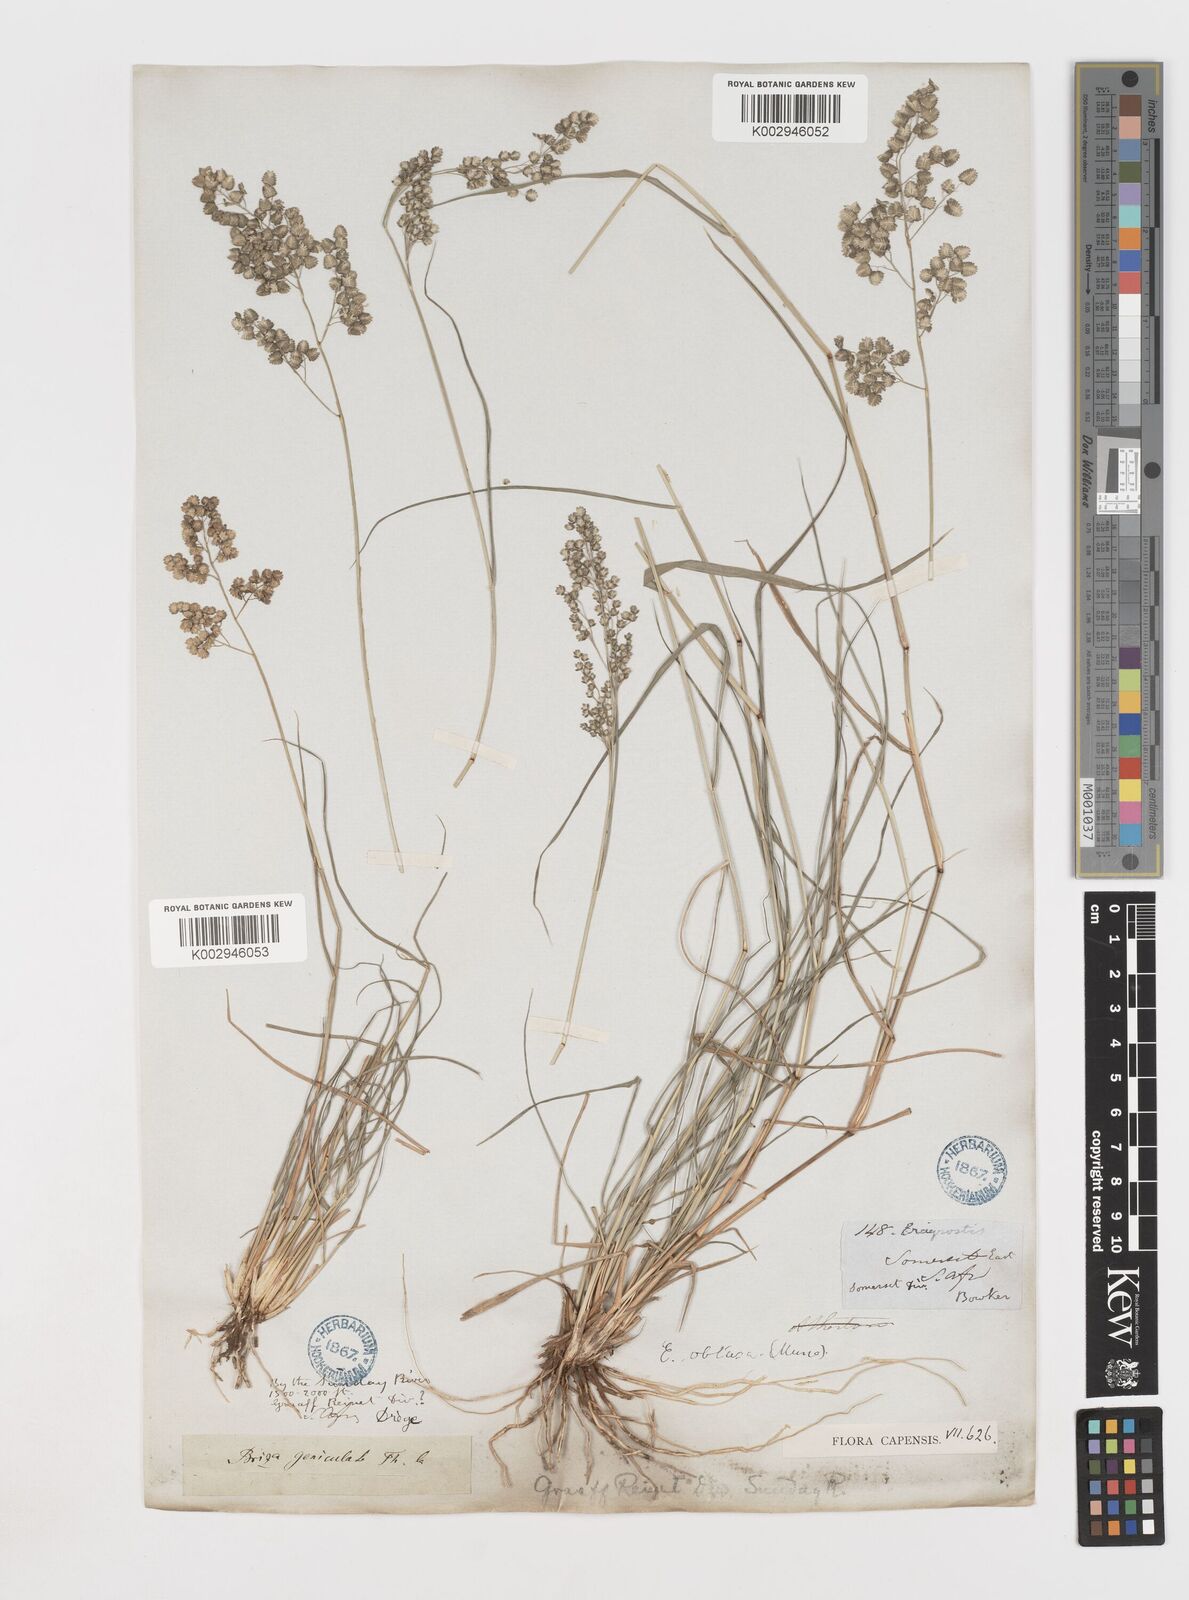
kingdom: Plantae
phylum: Tracheophyta
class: Liliopsida
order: Poales
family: Poaceae
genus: Eragrostis
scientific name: Eragrostis obtusa
